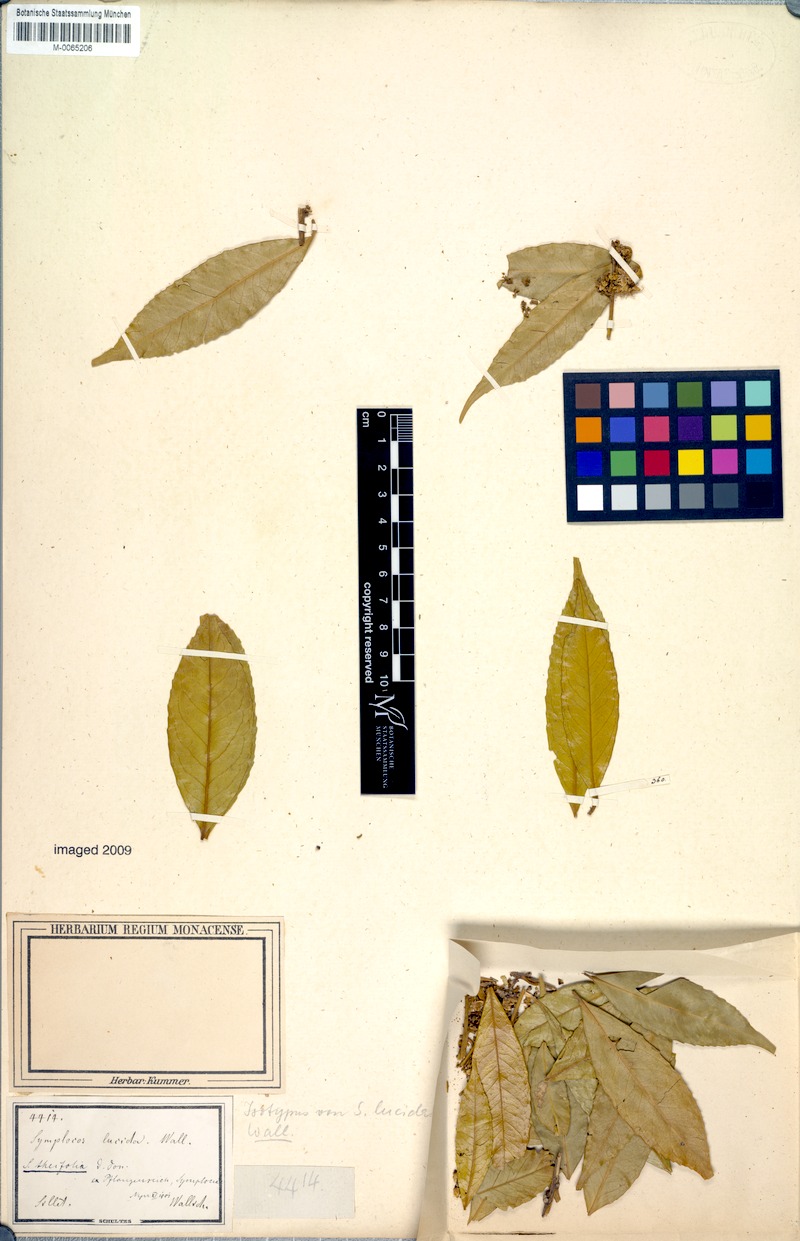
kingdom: Plantae
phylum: Tracheophyta
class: Magnoliopsida
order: Ericales
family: Symplocaceae
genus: Symplocos
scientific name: Symplocos lucida
